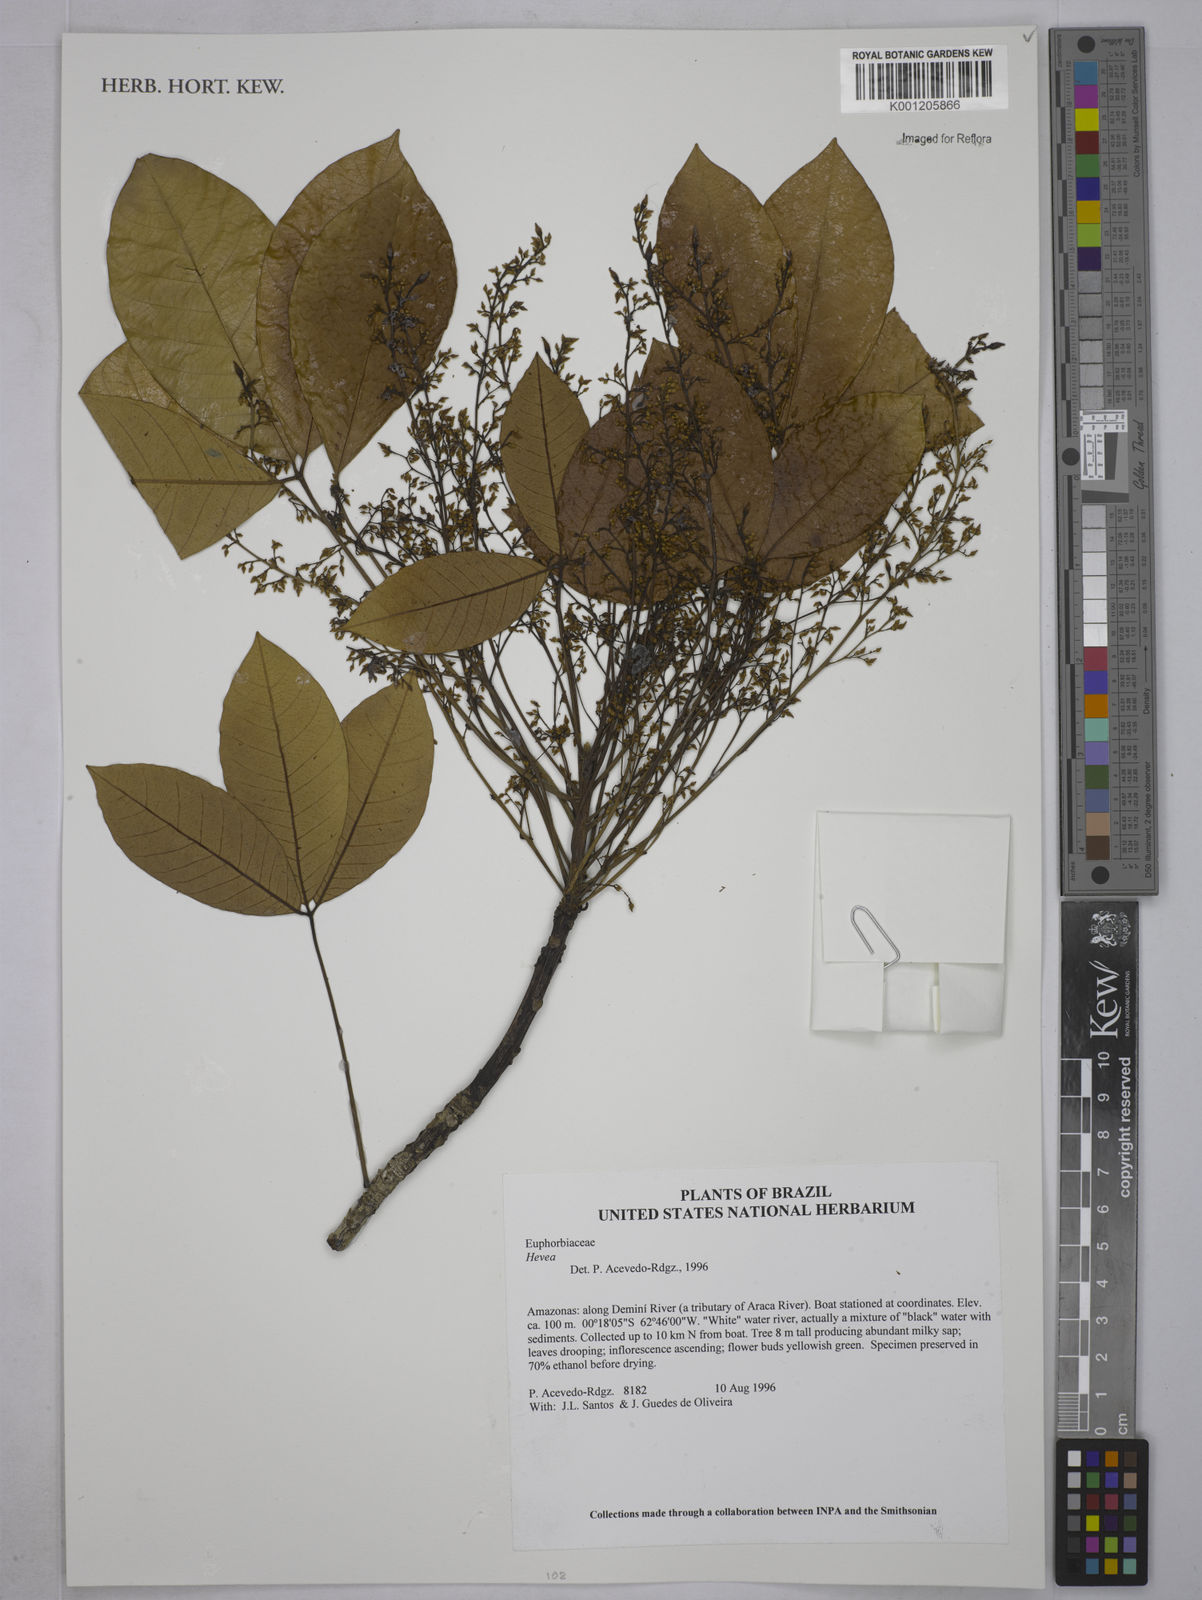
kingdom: Plantae
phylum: Tracheophyta
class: Magnoliopsida
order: Malpighiales
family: Euphorbiaceae
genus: Hevea
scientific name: Hevea
